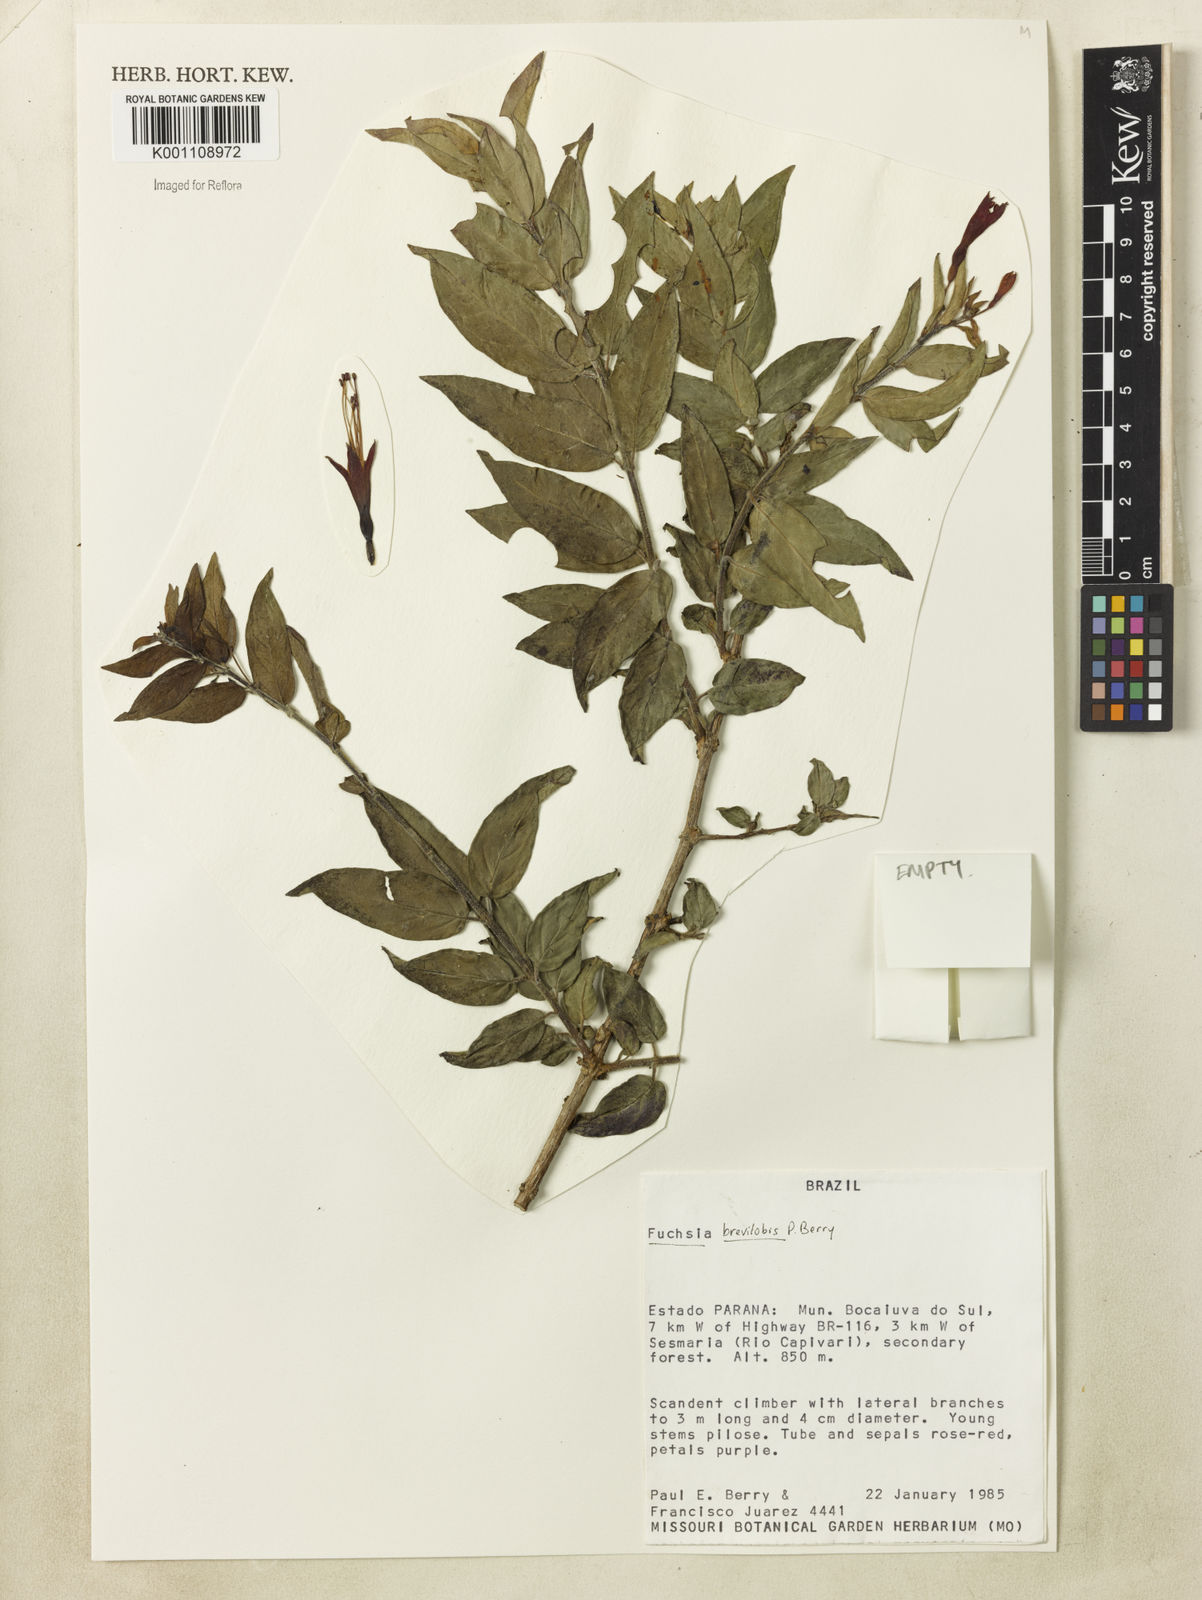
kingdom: Plantae
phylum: Tracheophyta
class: Magnoliopsida
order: Myrtales
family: Onagraceae
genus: Fuchsia
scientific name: Fuchsia brevilobis
